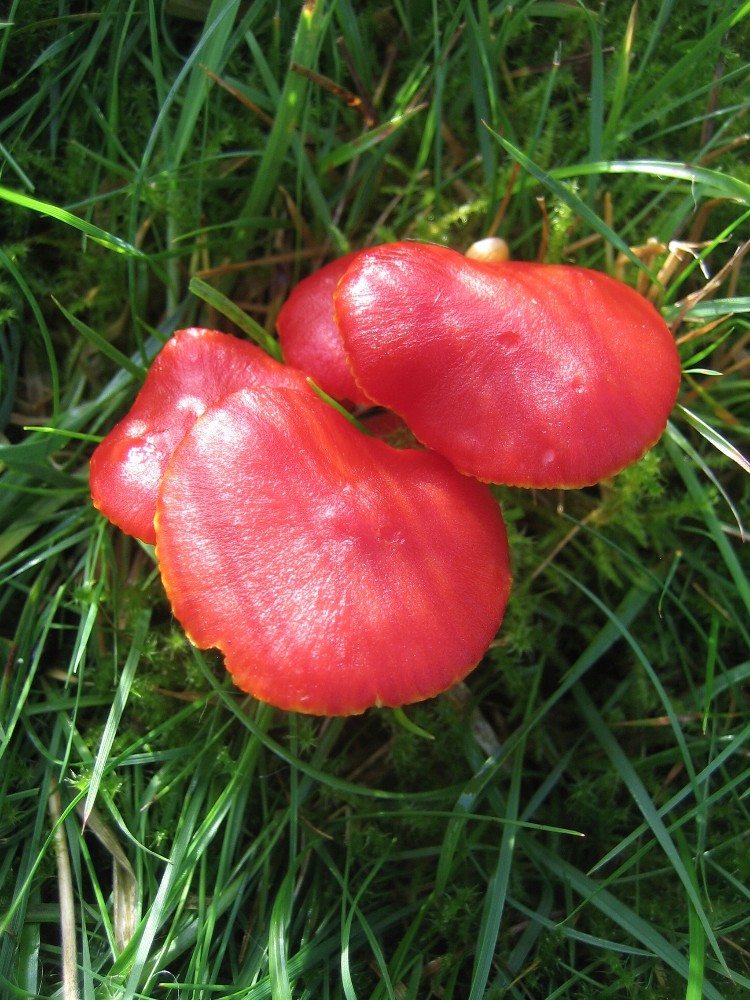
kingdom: Fungi
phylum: Basidiomycota
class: Agaricomycetes
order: Agaricales
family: Hygrophoraceae
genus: Hygrocybe
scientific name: Hygrocybe coccinea
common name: cinnober-vokshat
